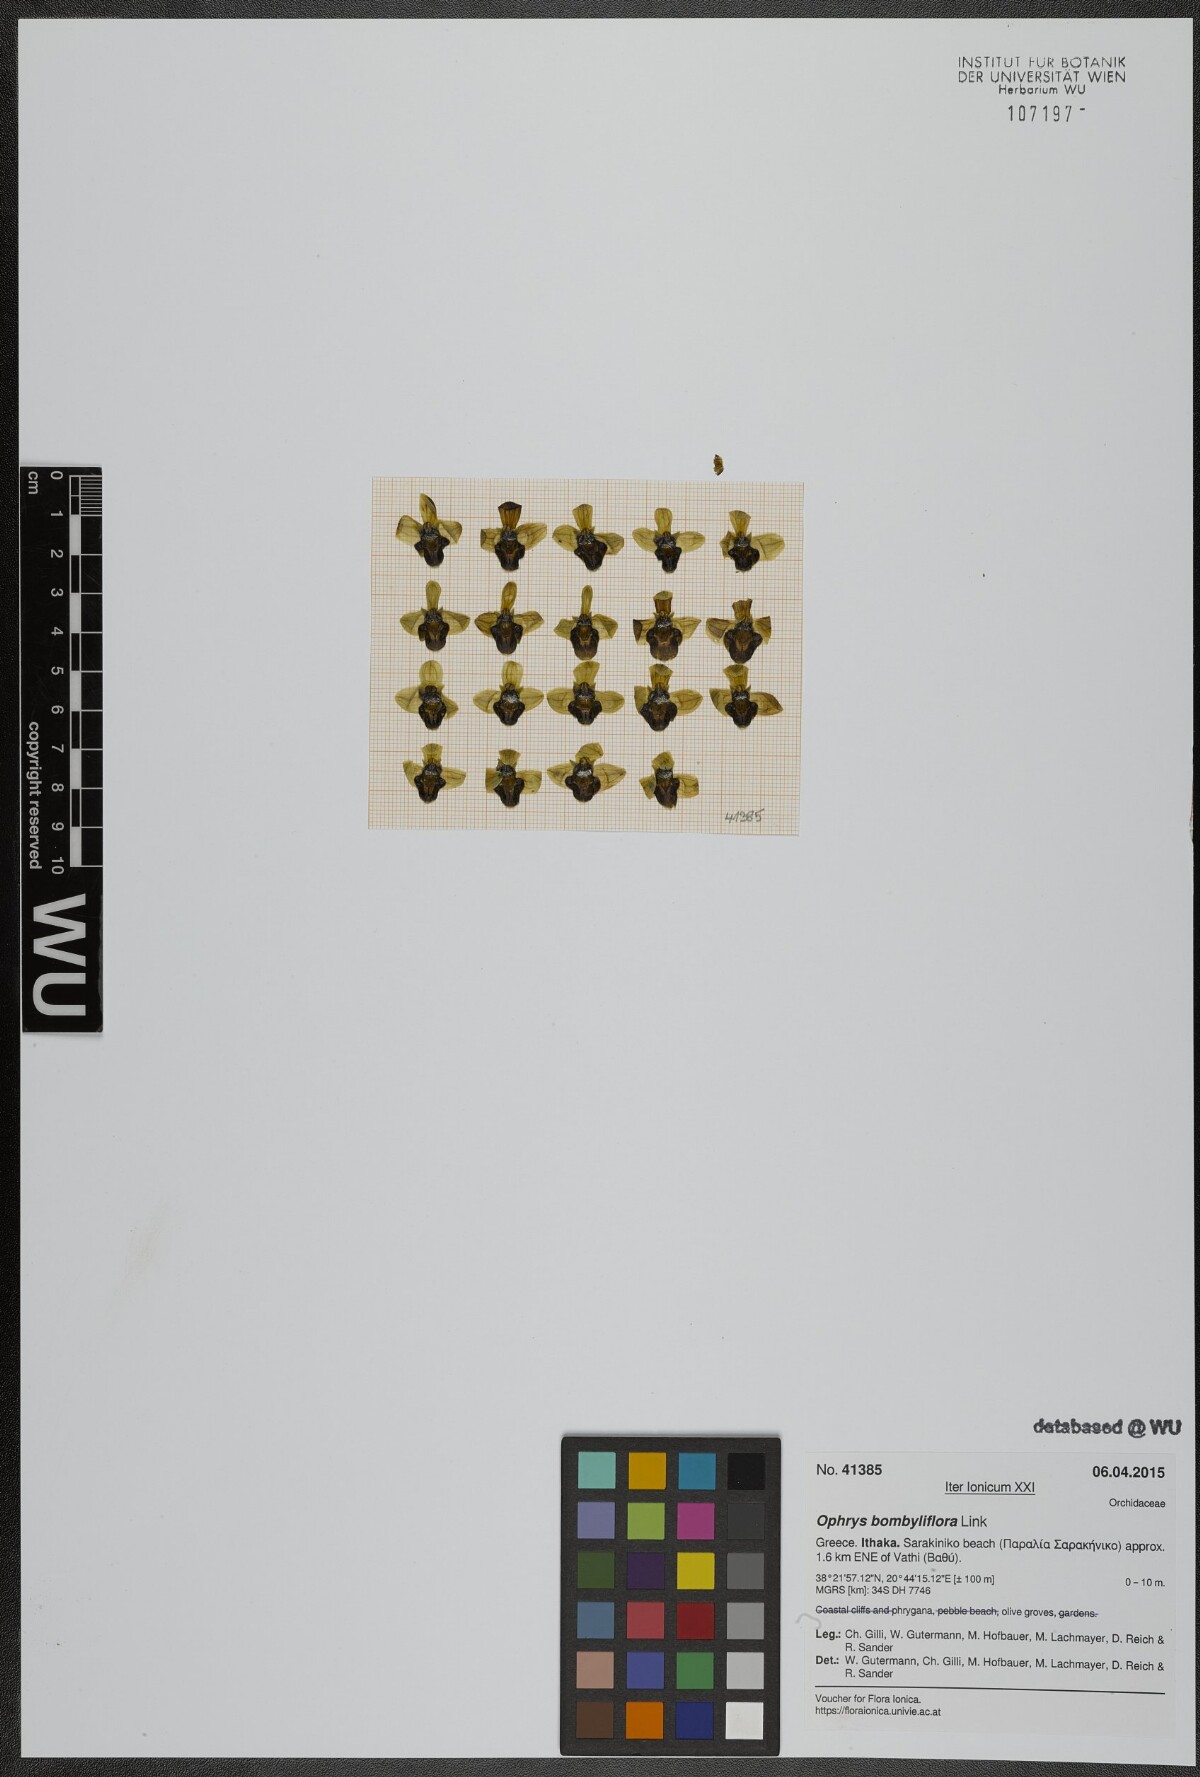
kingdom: Plantae
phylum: Tracheophyta
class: Liliopsida
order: Asparagales
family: Orchidaceae
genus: Ophrys
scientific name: Ophrys bombyliflora
